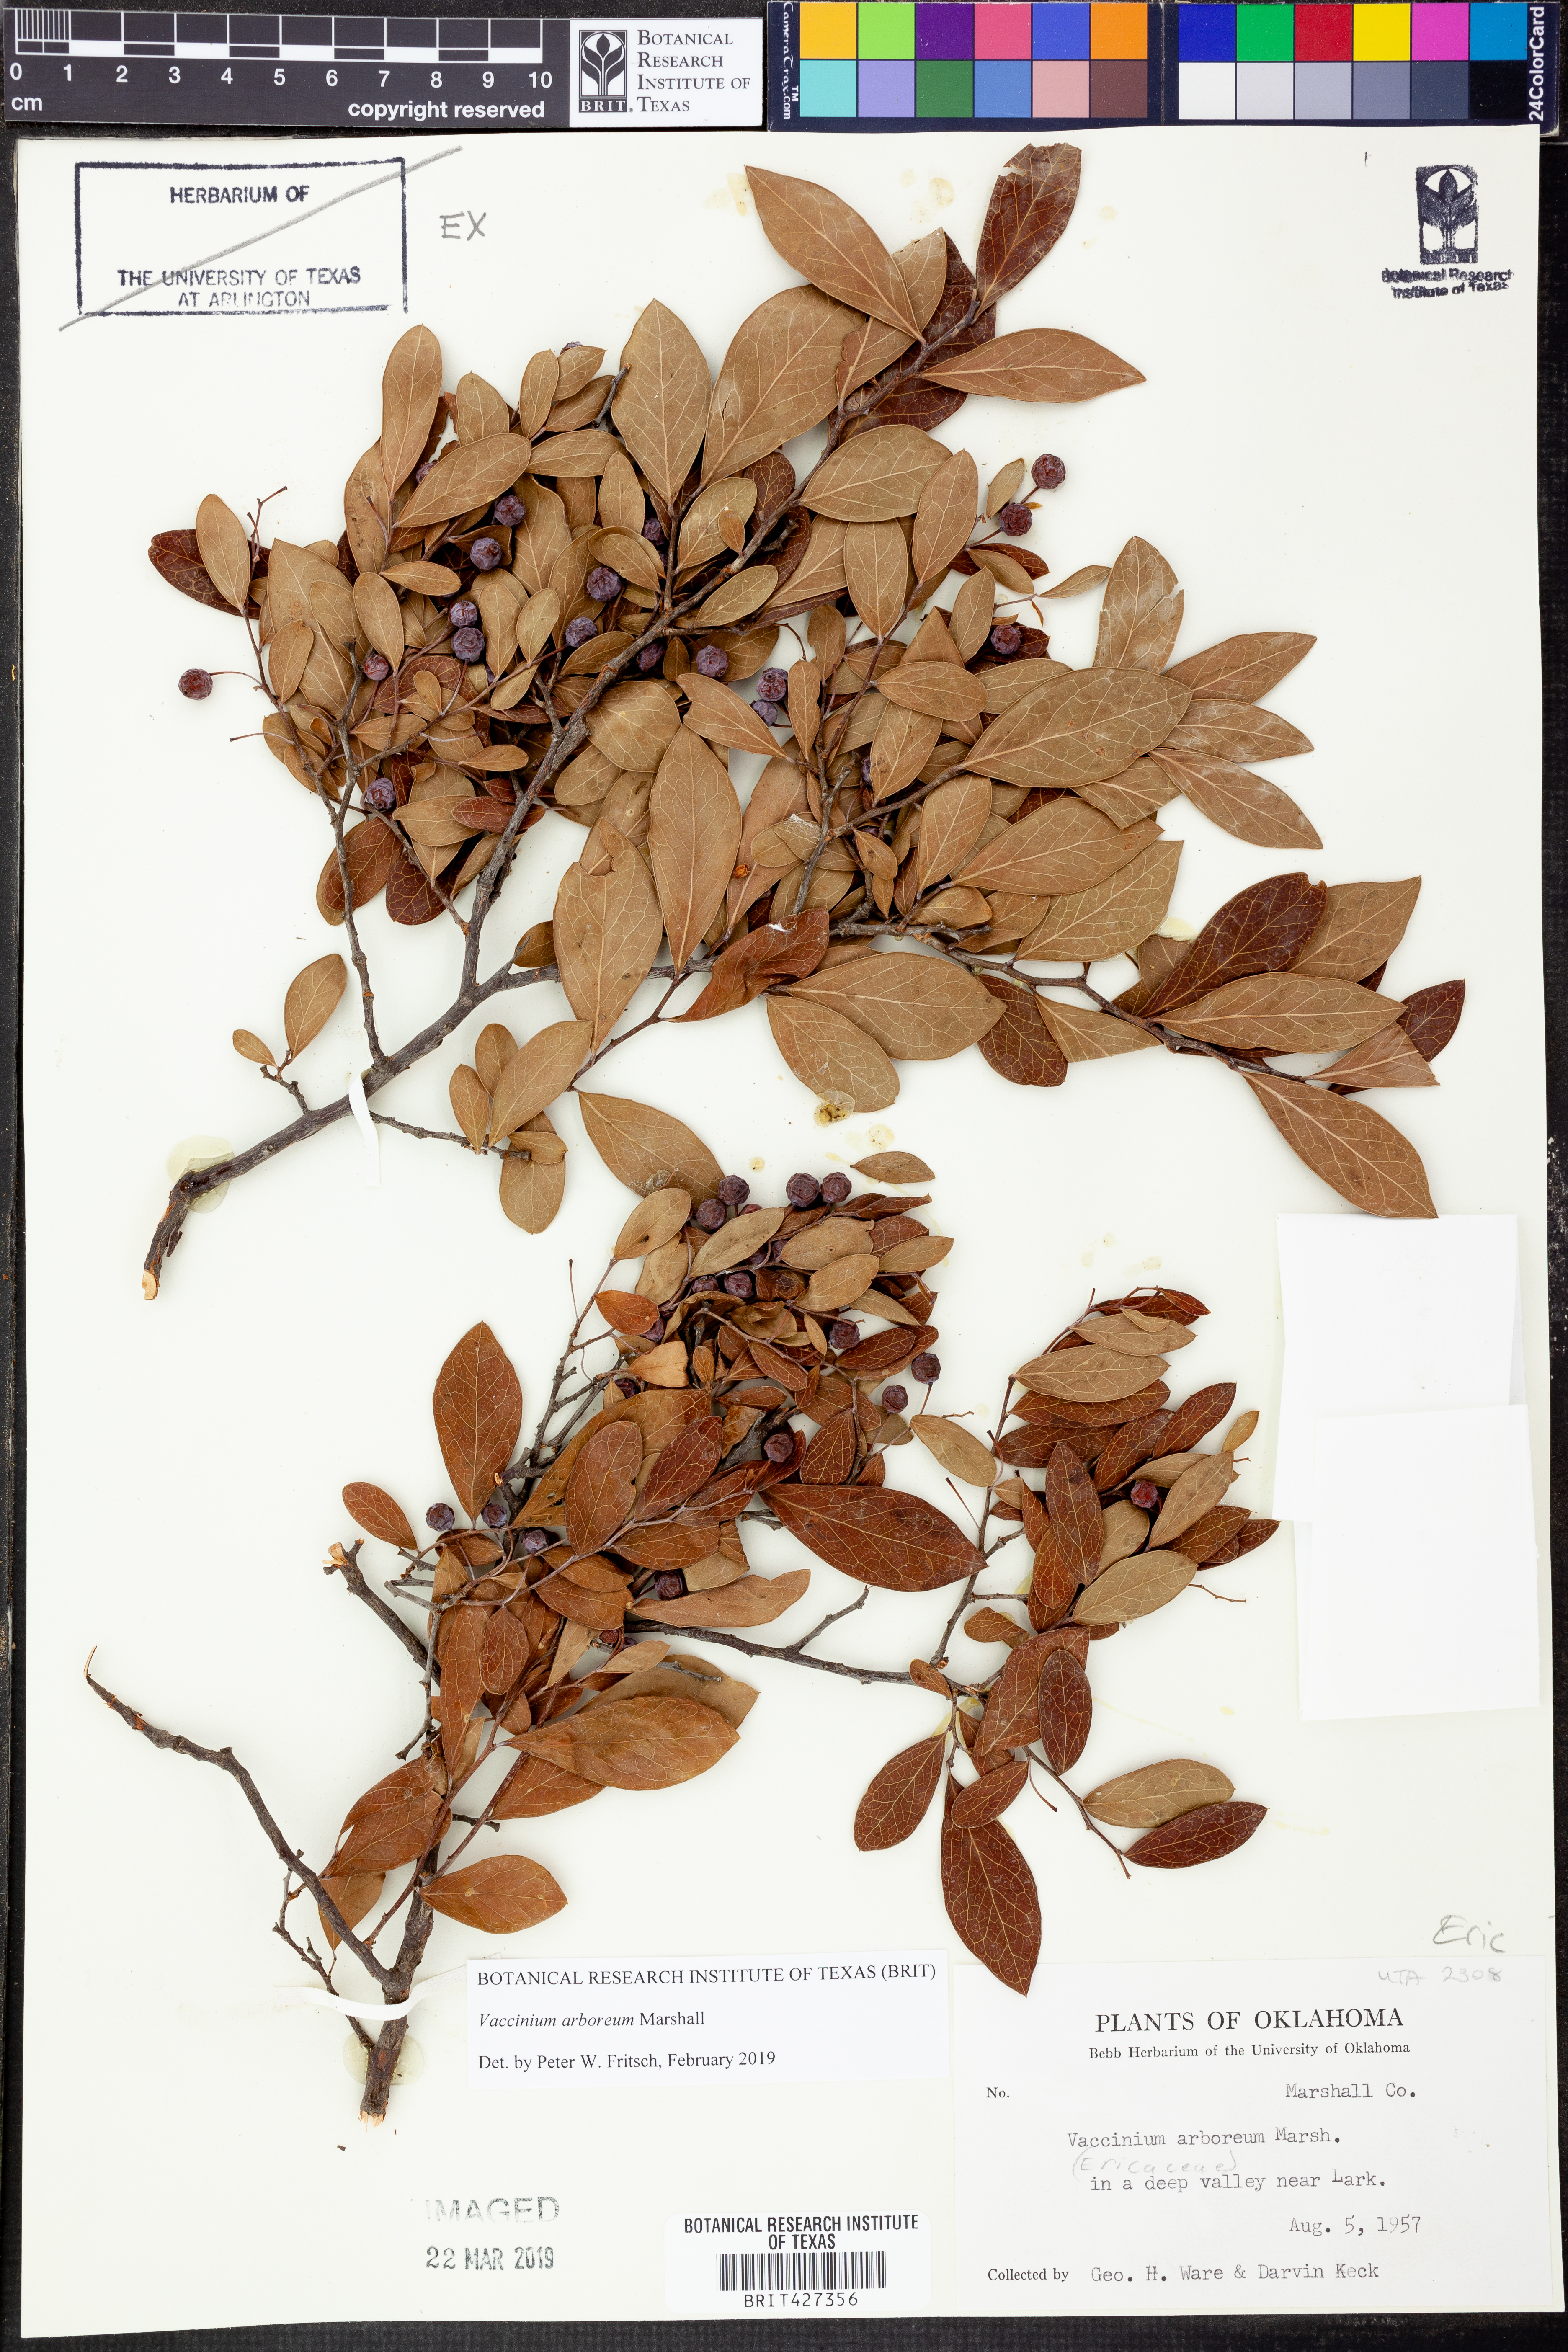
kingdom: Plantae
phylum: Tracheophyta
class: Magnoliopsida
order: Ericales
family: Ericaceae
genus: Vaccinium
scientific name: Vaccinium arboreum
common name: Farkleberry
